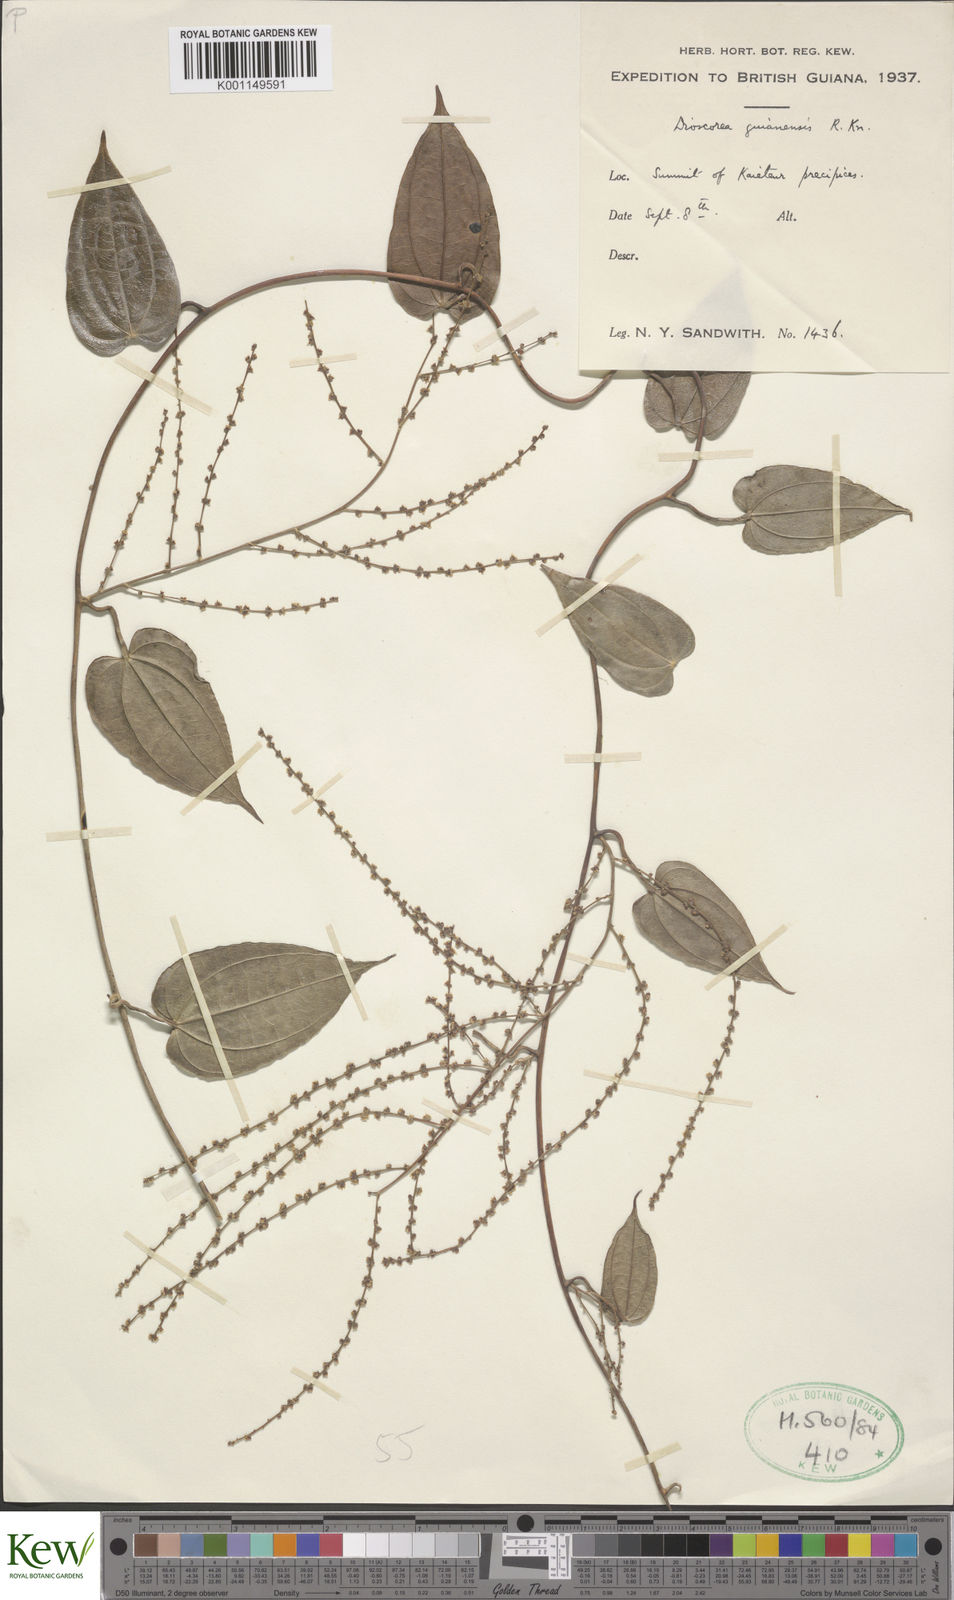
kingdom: Plantae
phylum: Tracheophyta
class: Liliopsida
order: Dioscoreales
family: Dioscoreaceae
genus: Dioscorea
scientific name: Dioscorea guianensis
